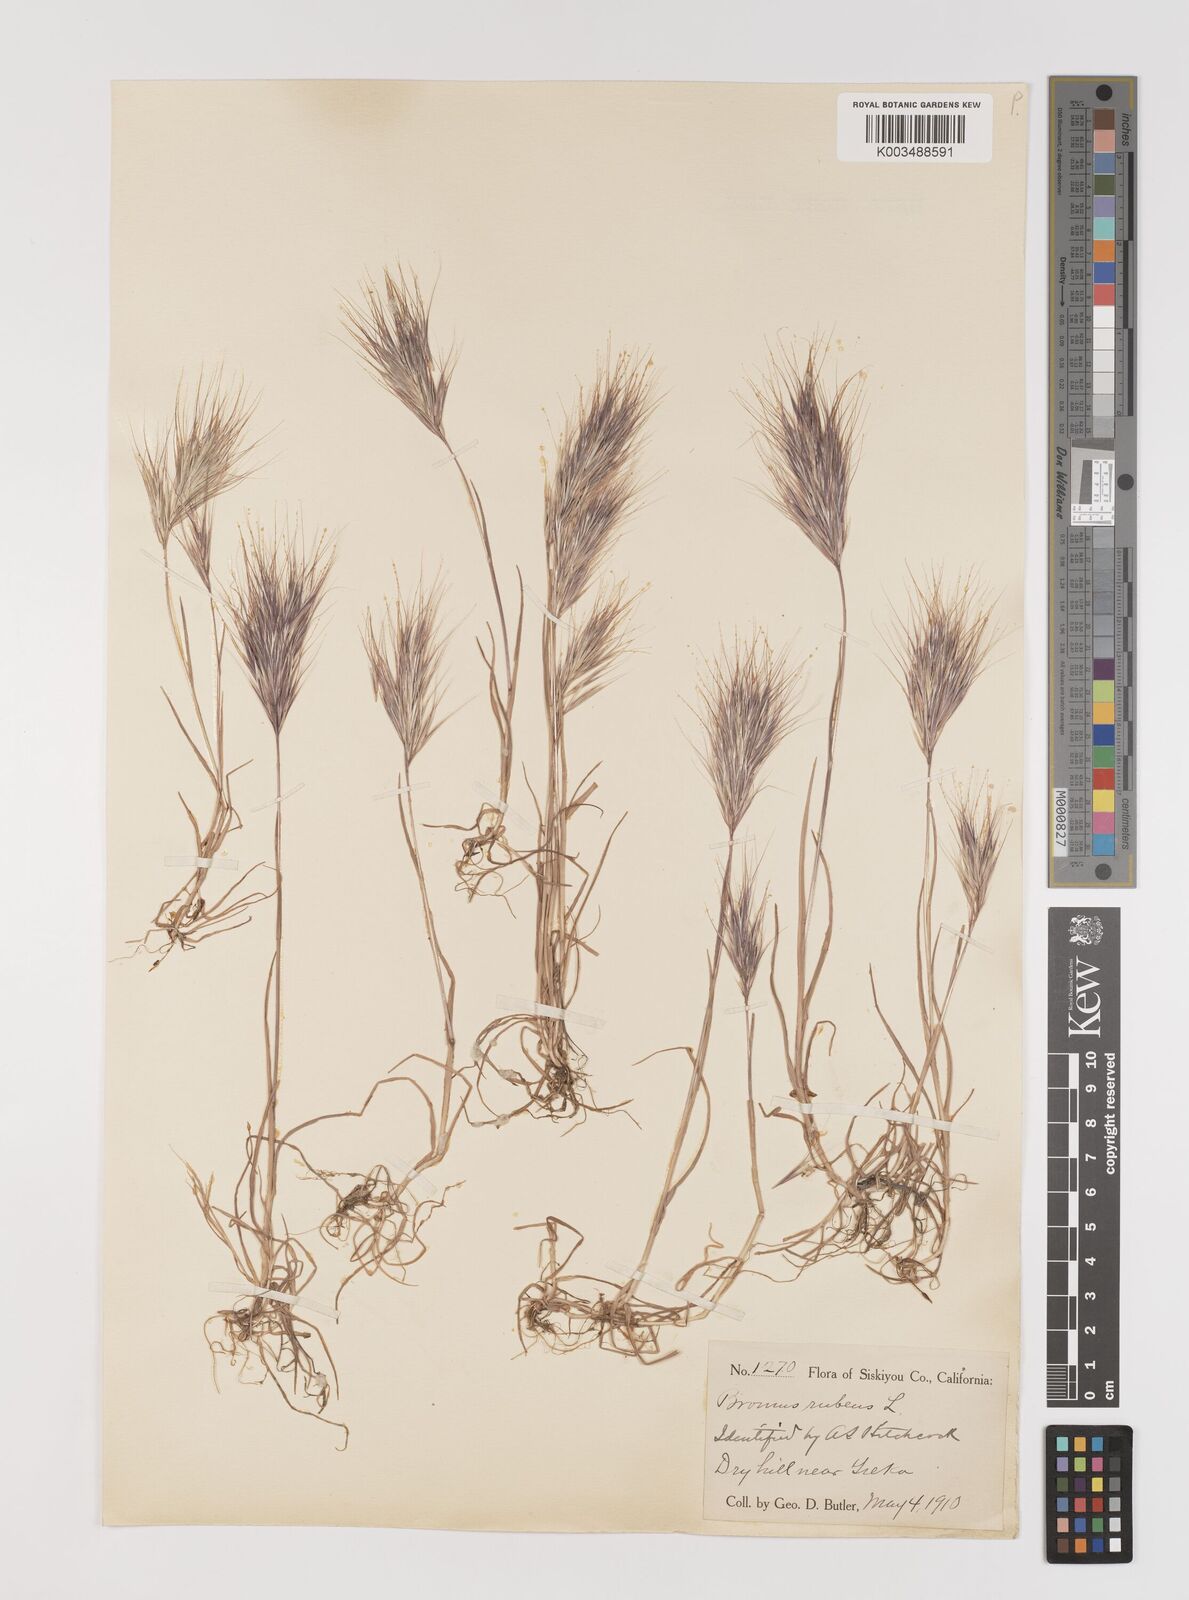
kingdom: Plantae
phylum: Tracheophyta
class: Liliopsida
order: Poales
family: Poaceae
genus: Bromus
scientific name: Bromus rubens
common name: Red brome
